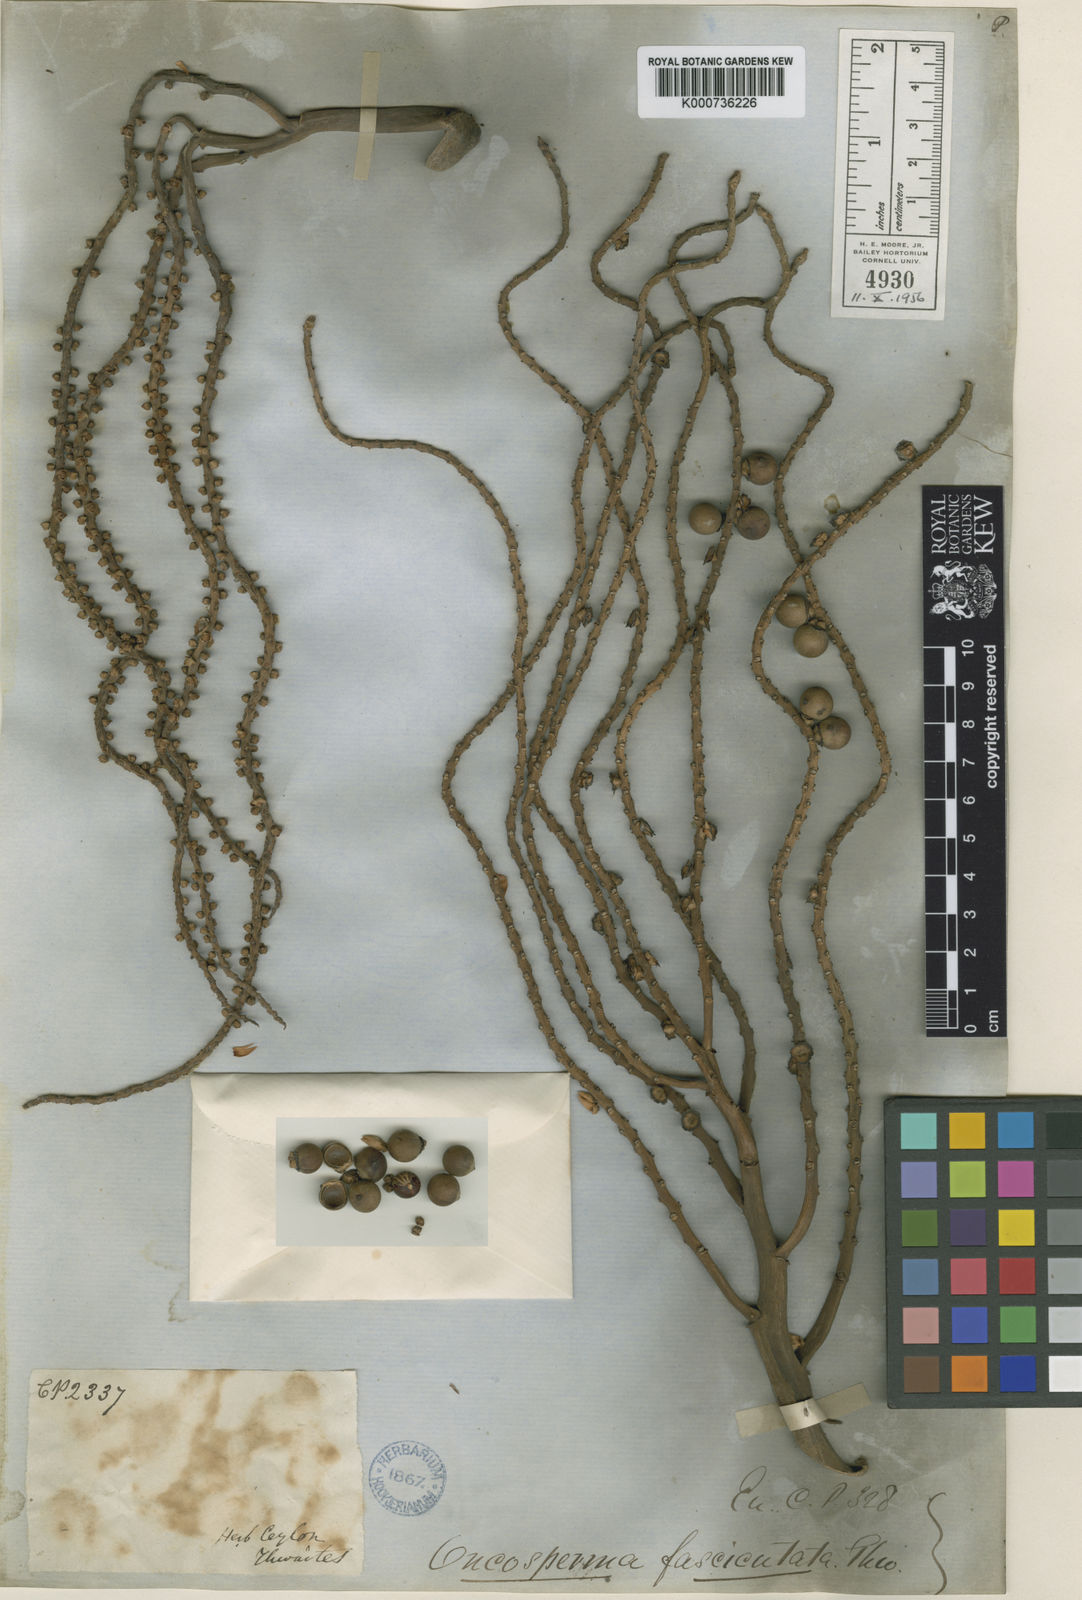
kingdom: Plantae
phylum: Tracheophyta
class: Liliopsida
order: Arecales
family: Arecaceae
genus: Oncosperma
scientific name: Oncosperma fasciculatum
